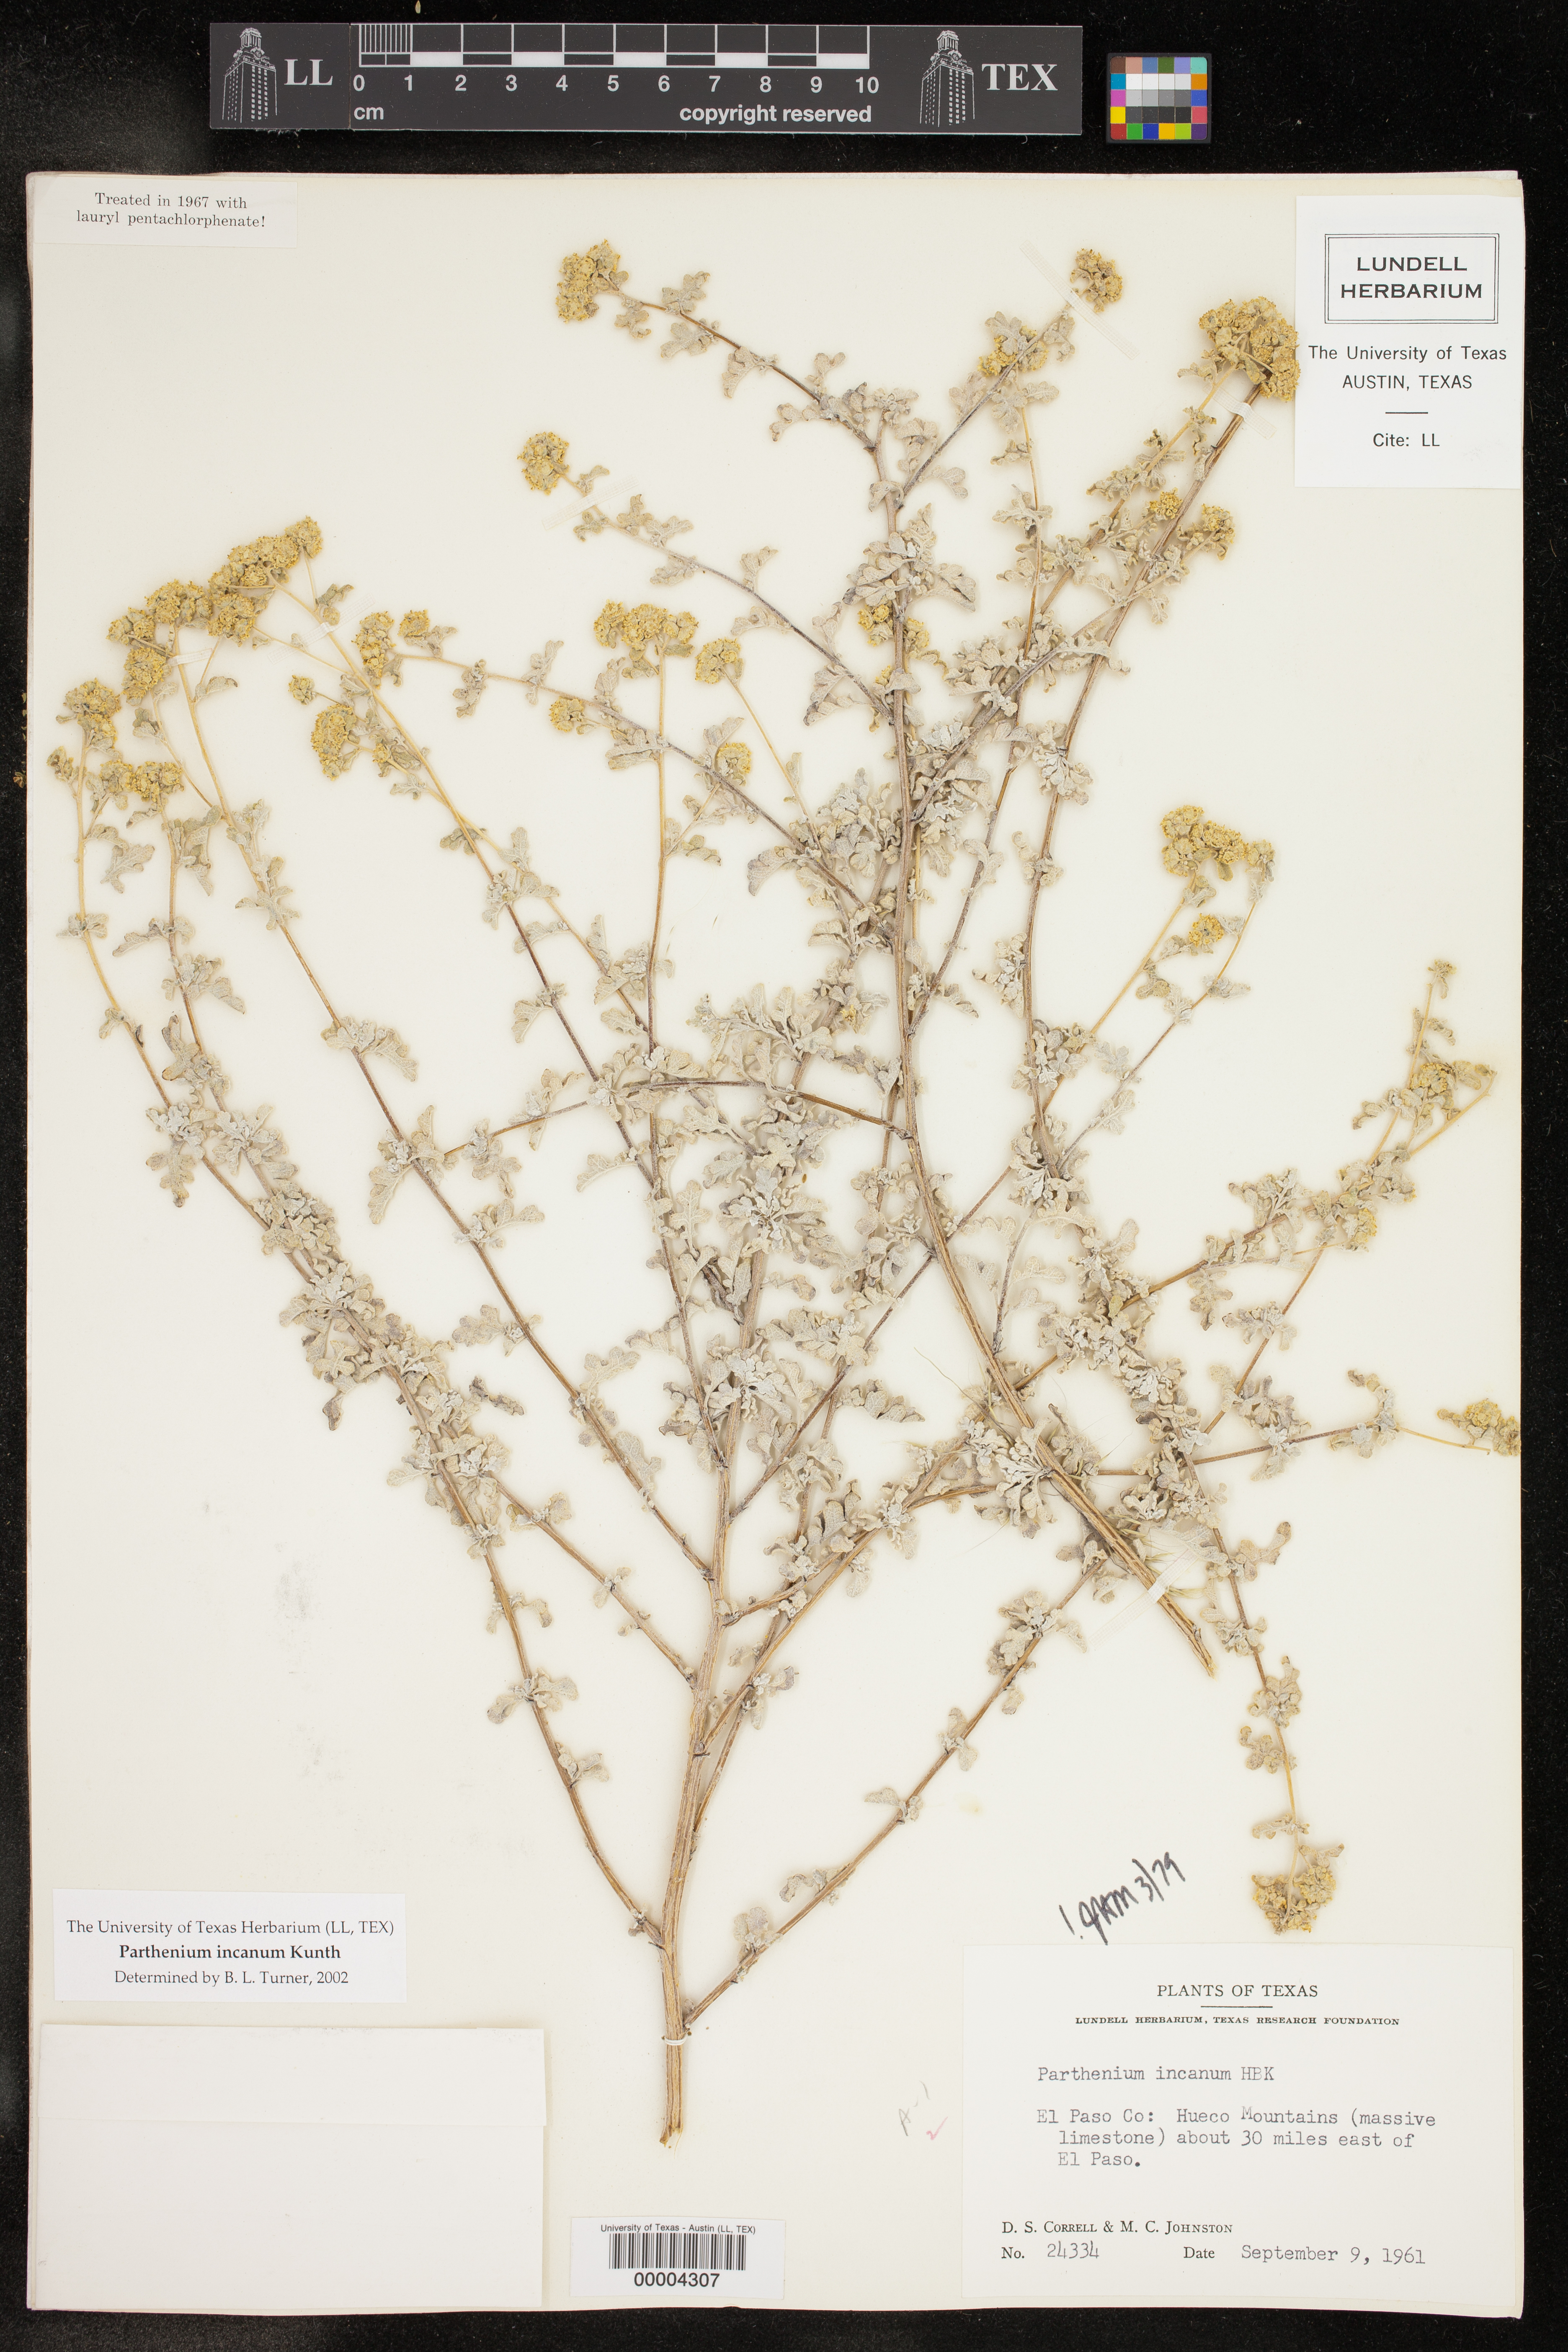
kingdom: Plantae
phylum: Tracheophyta
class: Magnoliopsida
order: Asterales
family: Asteraceae
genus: Parthenium
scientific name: Parthenium incanum
